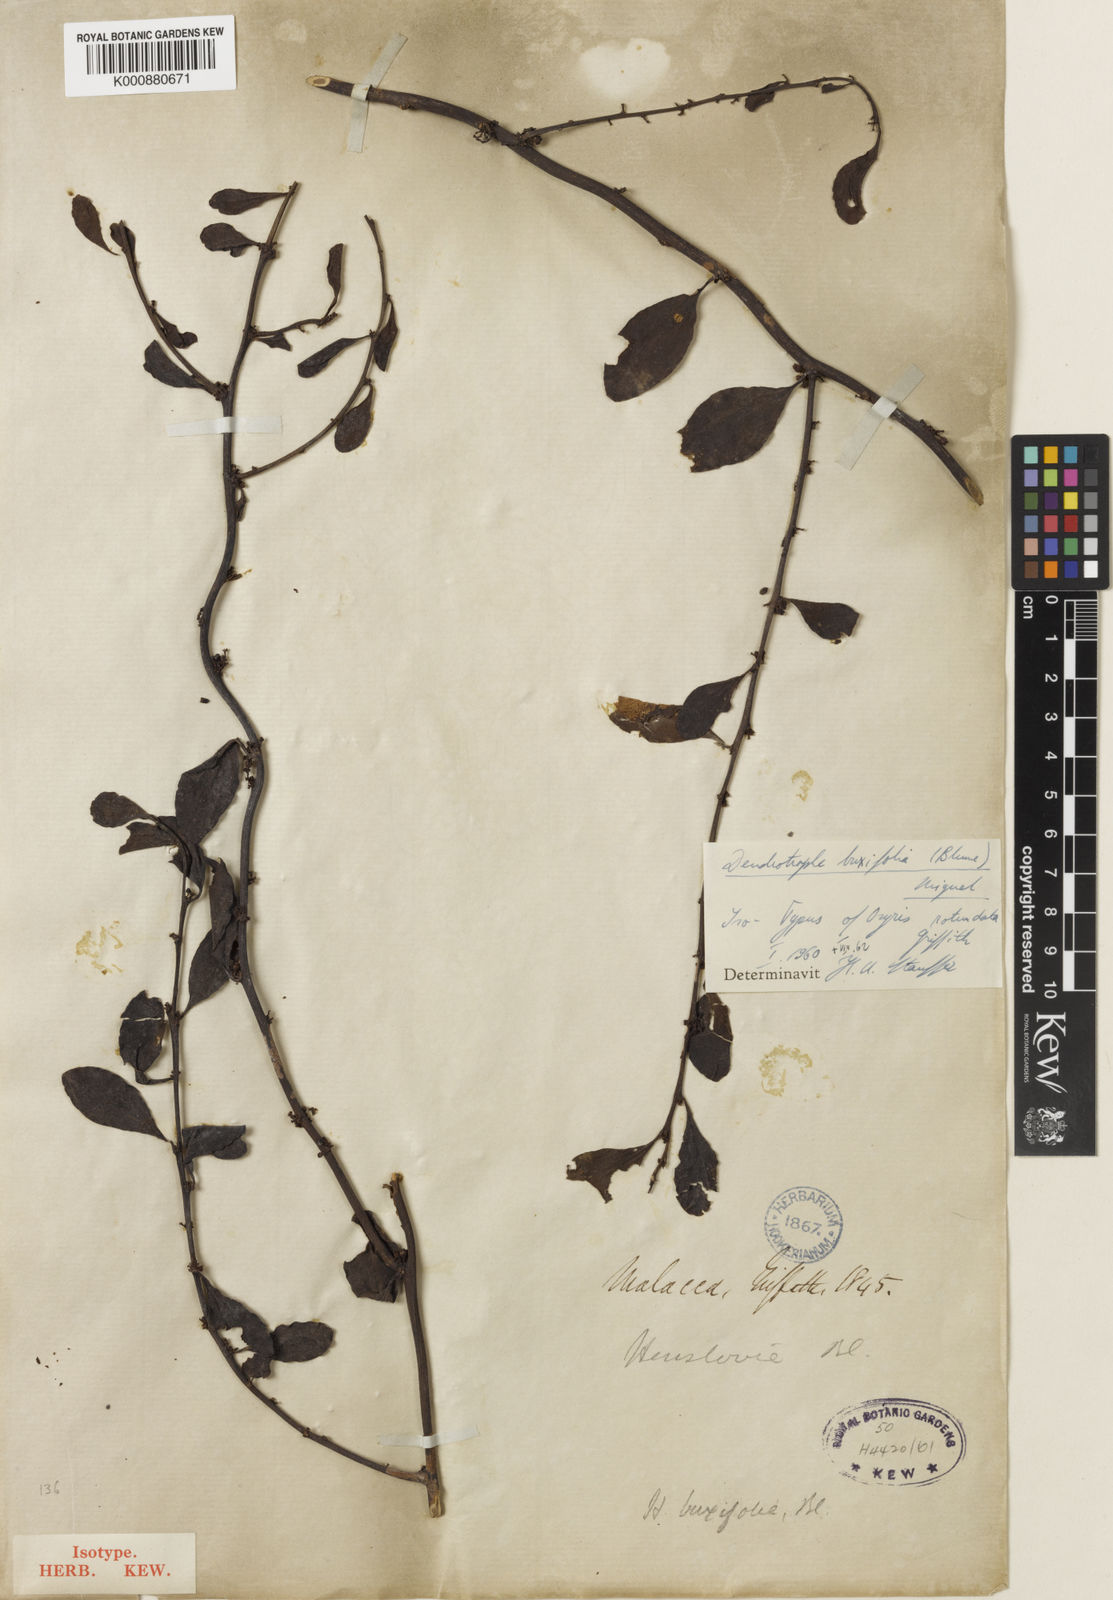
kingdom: Plantae
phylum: Tracheophyta
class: Magnoliopsida
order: Santalales
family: Amphorogynaceae
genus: Dendrotrophe
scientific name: Dendrotrophe buxifolia
